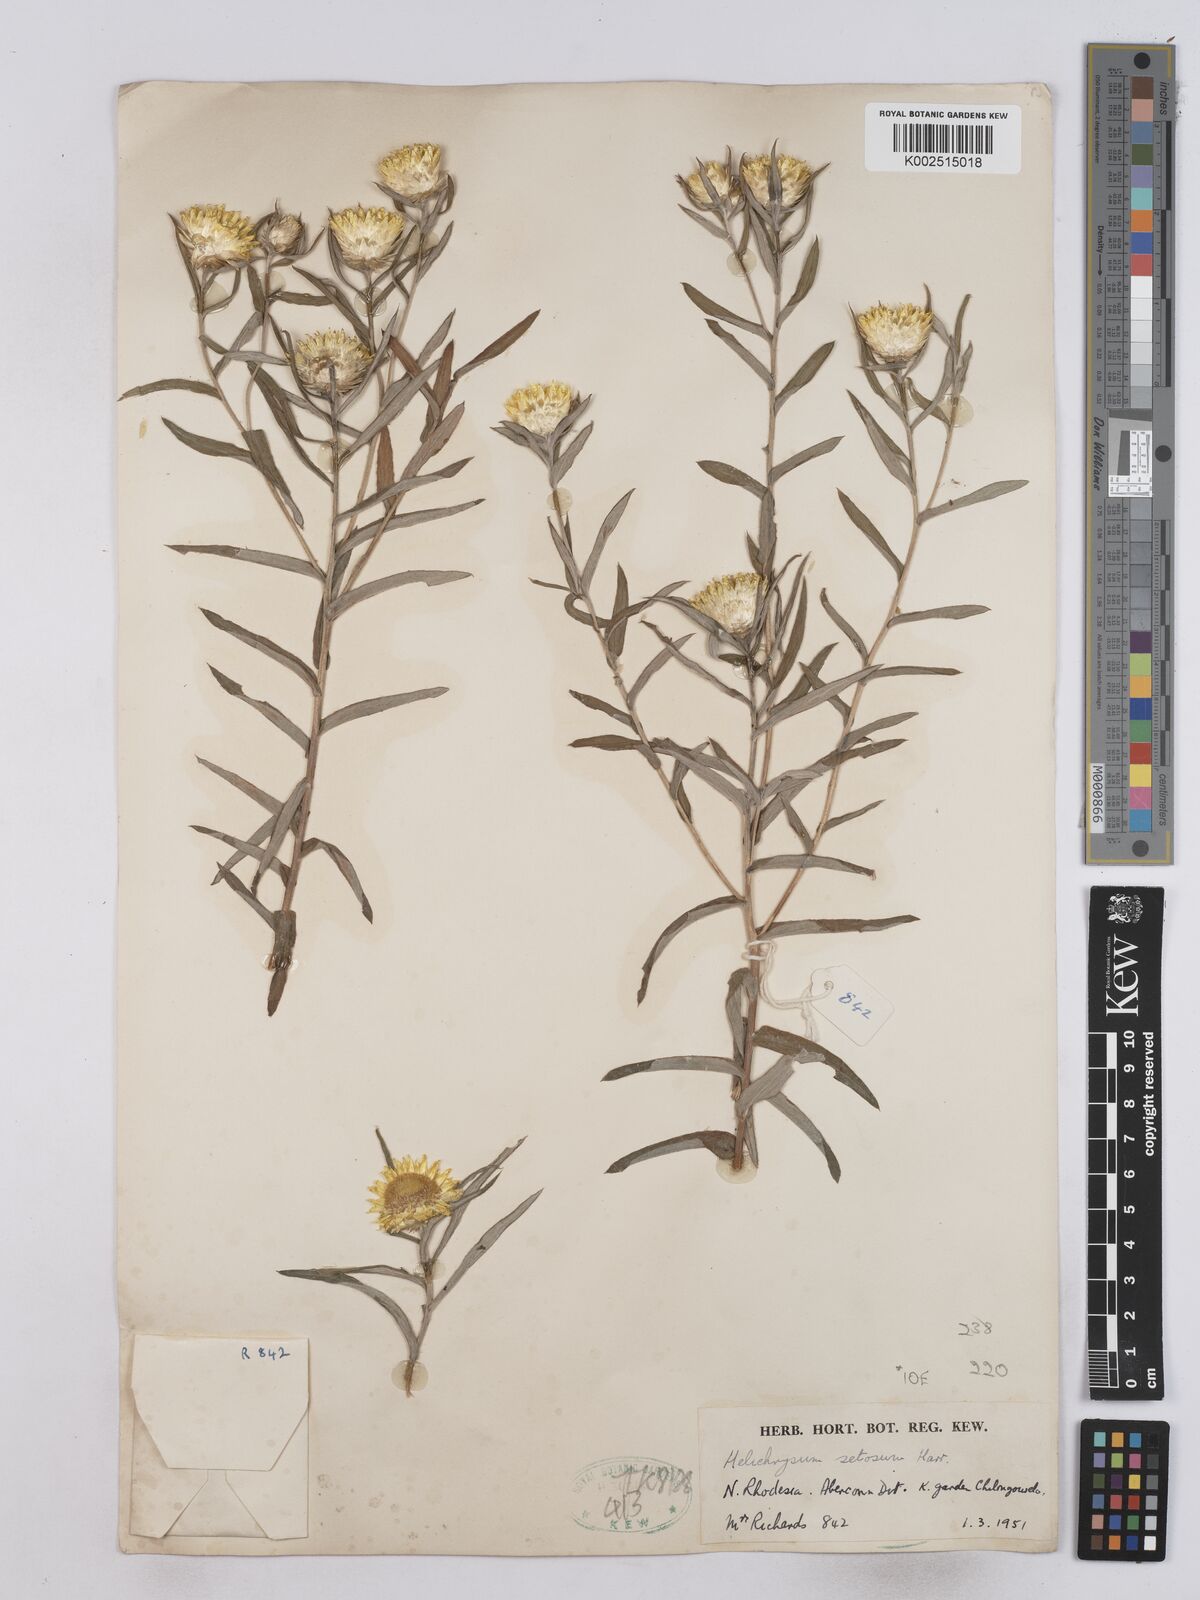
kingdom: Plantae
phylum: Tracheophyta
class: Magnoliopsida
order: Asterales
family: Asteraceae
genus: Helichrysum
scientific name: Helichrysum setosum
